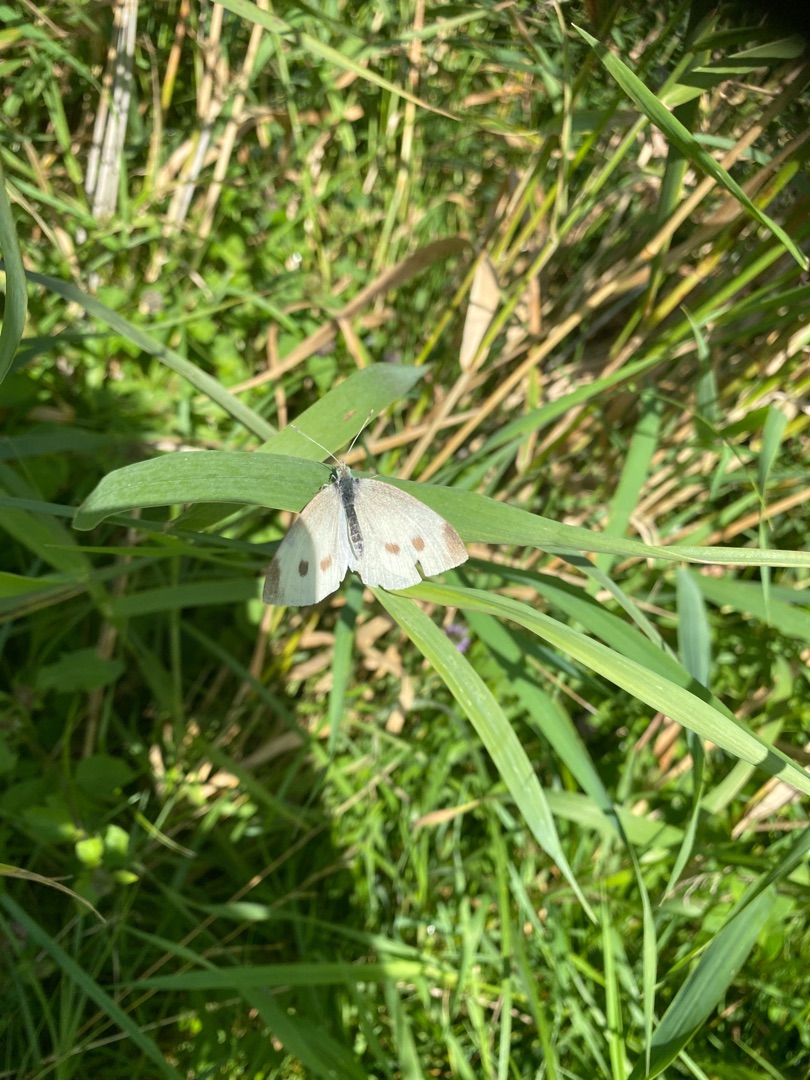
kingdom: Animalia
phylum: Arthropoda
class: Insecta
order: Lepidoptera
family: Pieridae
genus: Pieris
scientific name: Pieris rapae
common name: Lille kålsommerfugl
